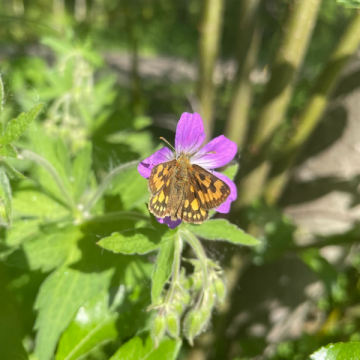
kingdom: Animalia
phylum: Arthropoda
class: Insecta
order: Lepidoptera
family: Hesperiidae
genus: Carterocephalus
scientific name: Carterocephalus palaemon
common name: Chequered Skipper
